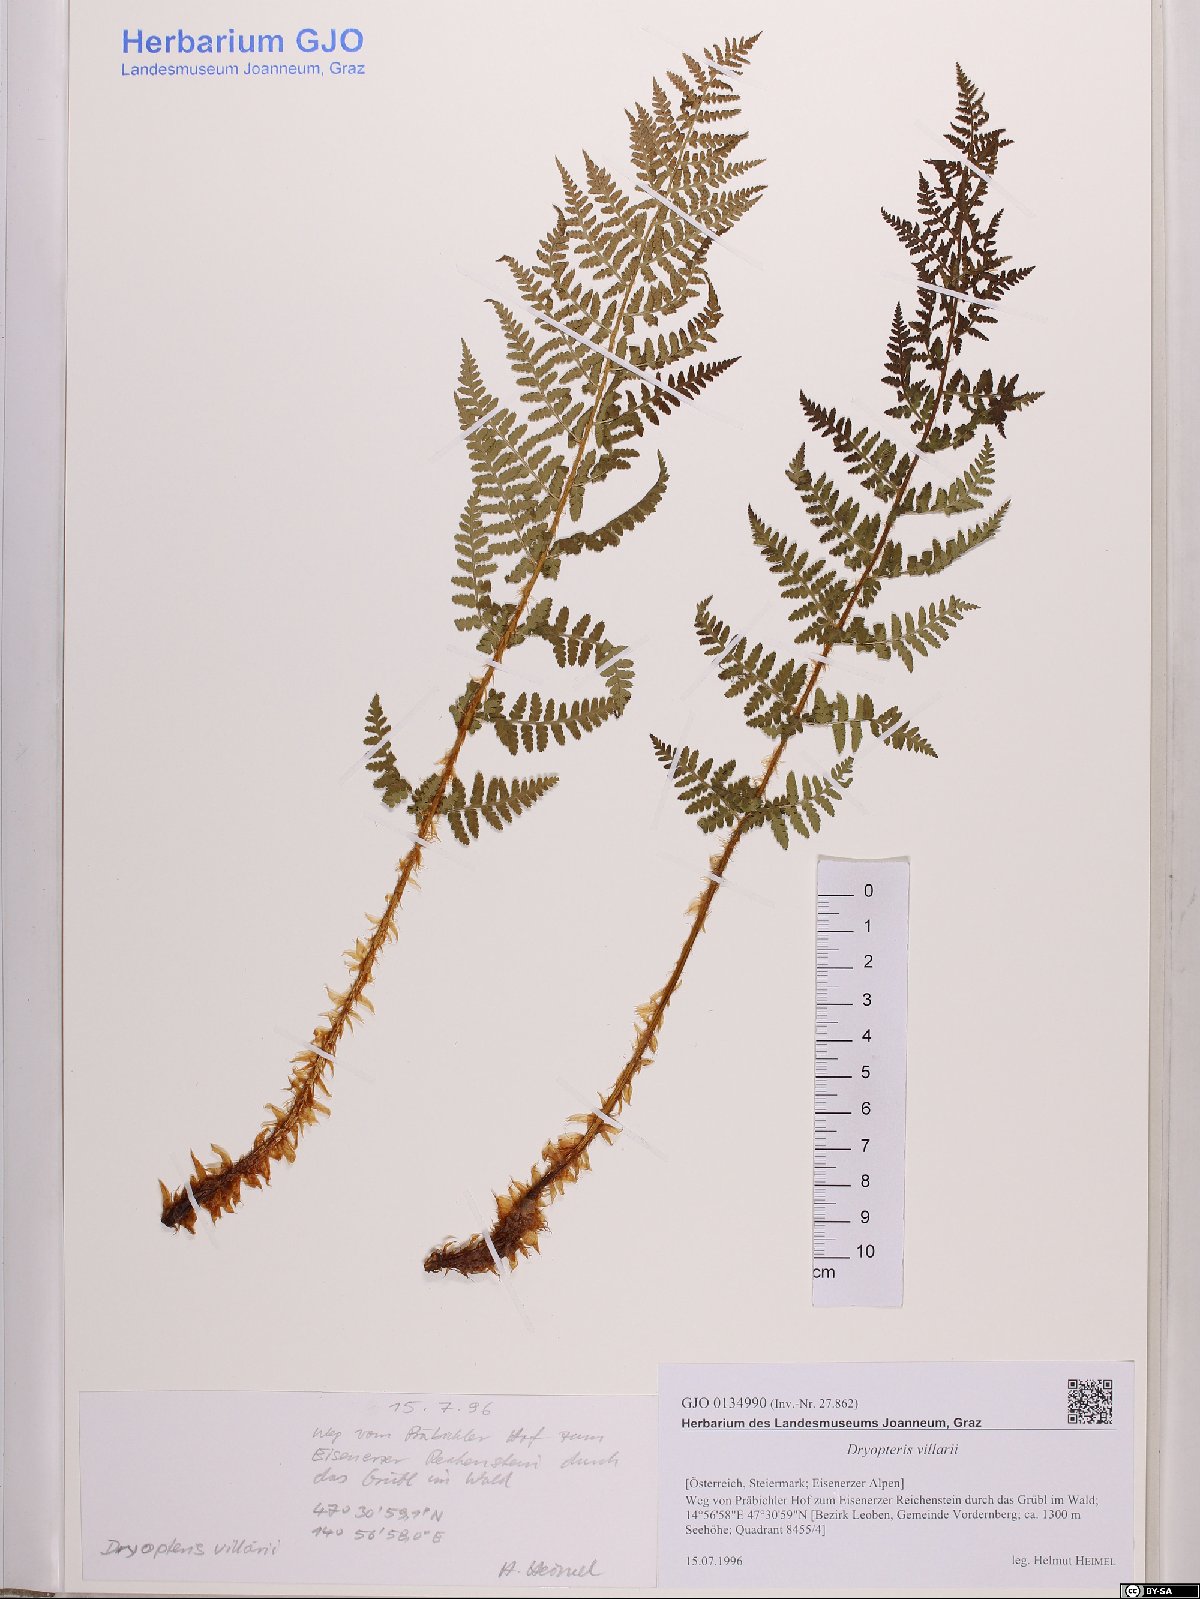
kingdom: Plantae
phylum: Tracheophyta
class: Polypodiopsida
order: Polypodiales
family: Dryopteridaceae
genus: Dryopteris
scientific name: Dryopteris villarii
